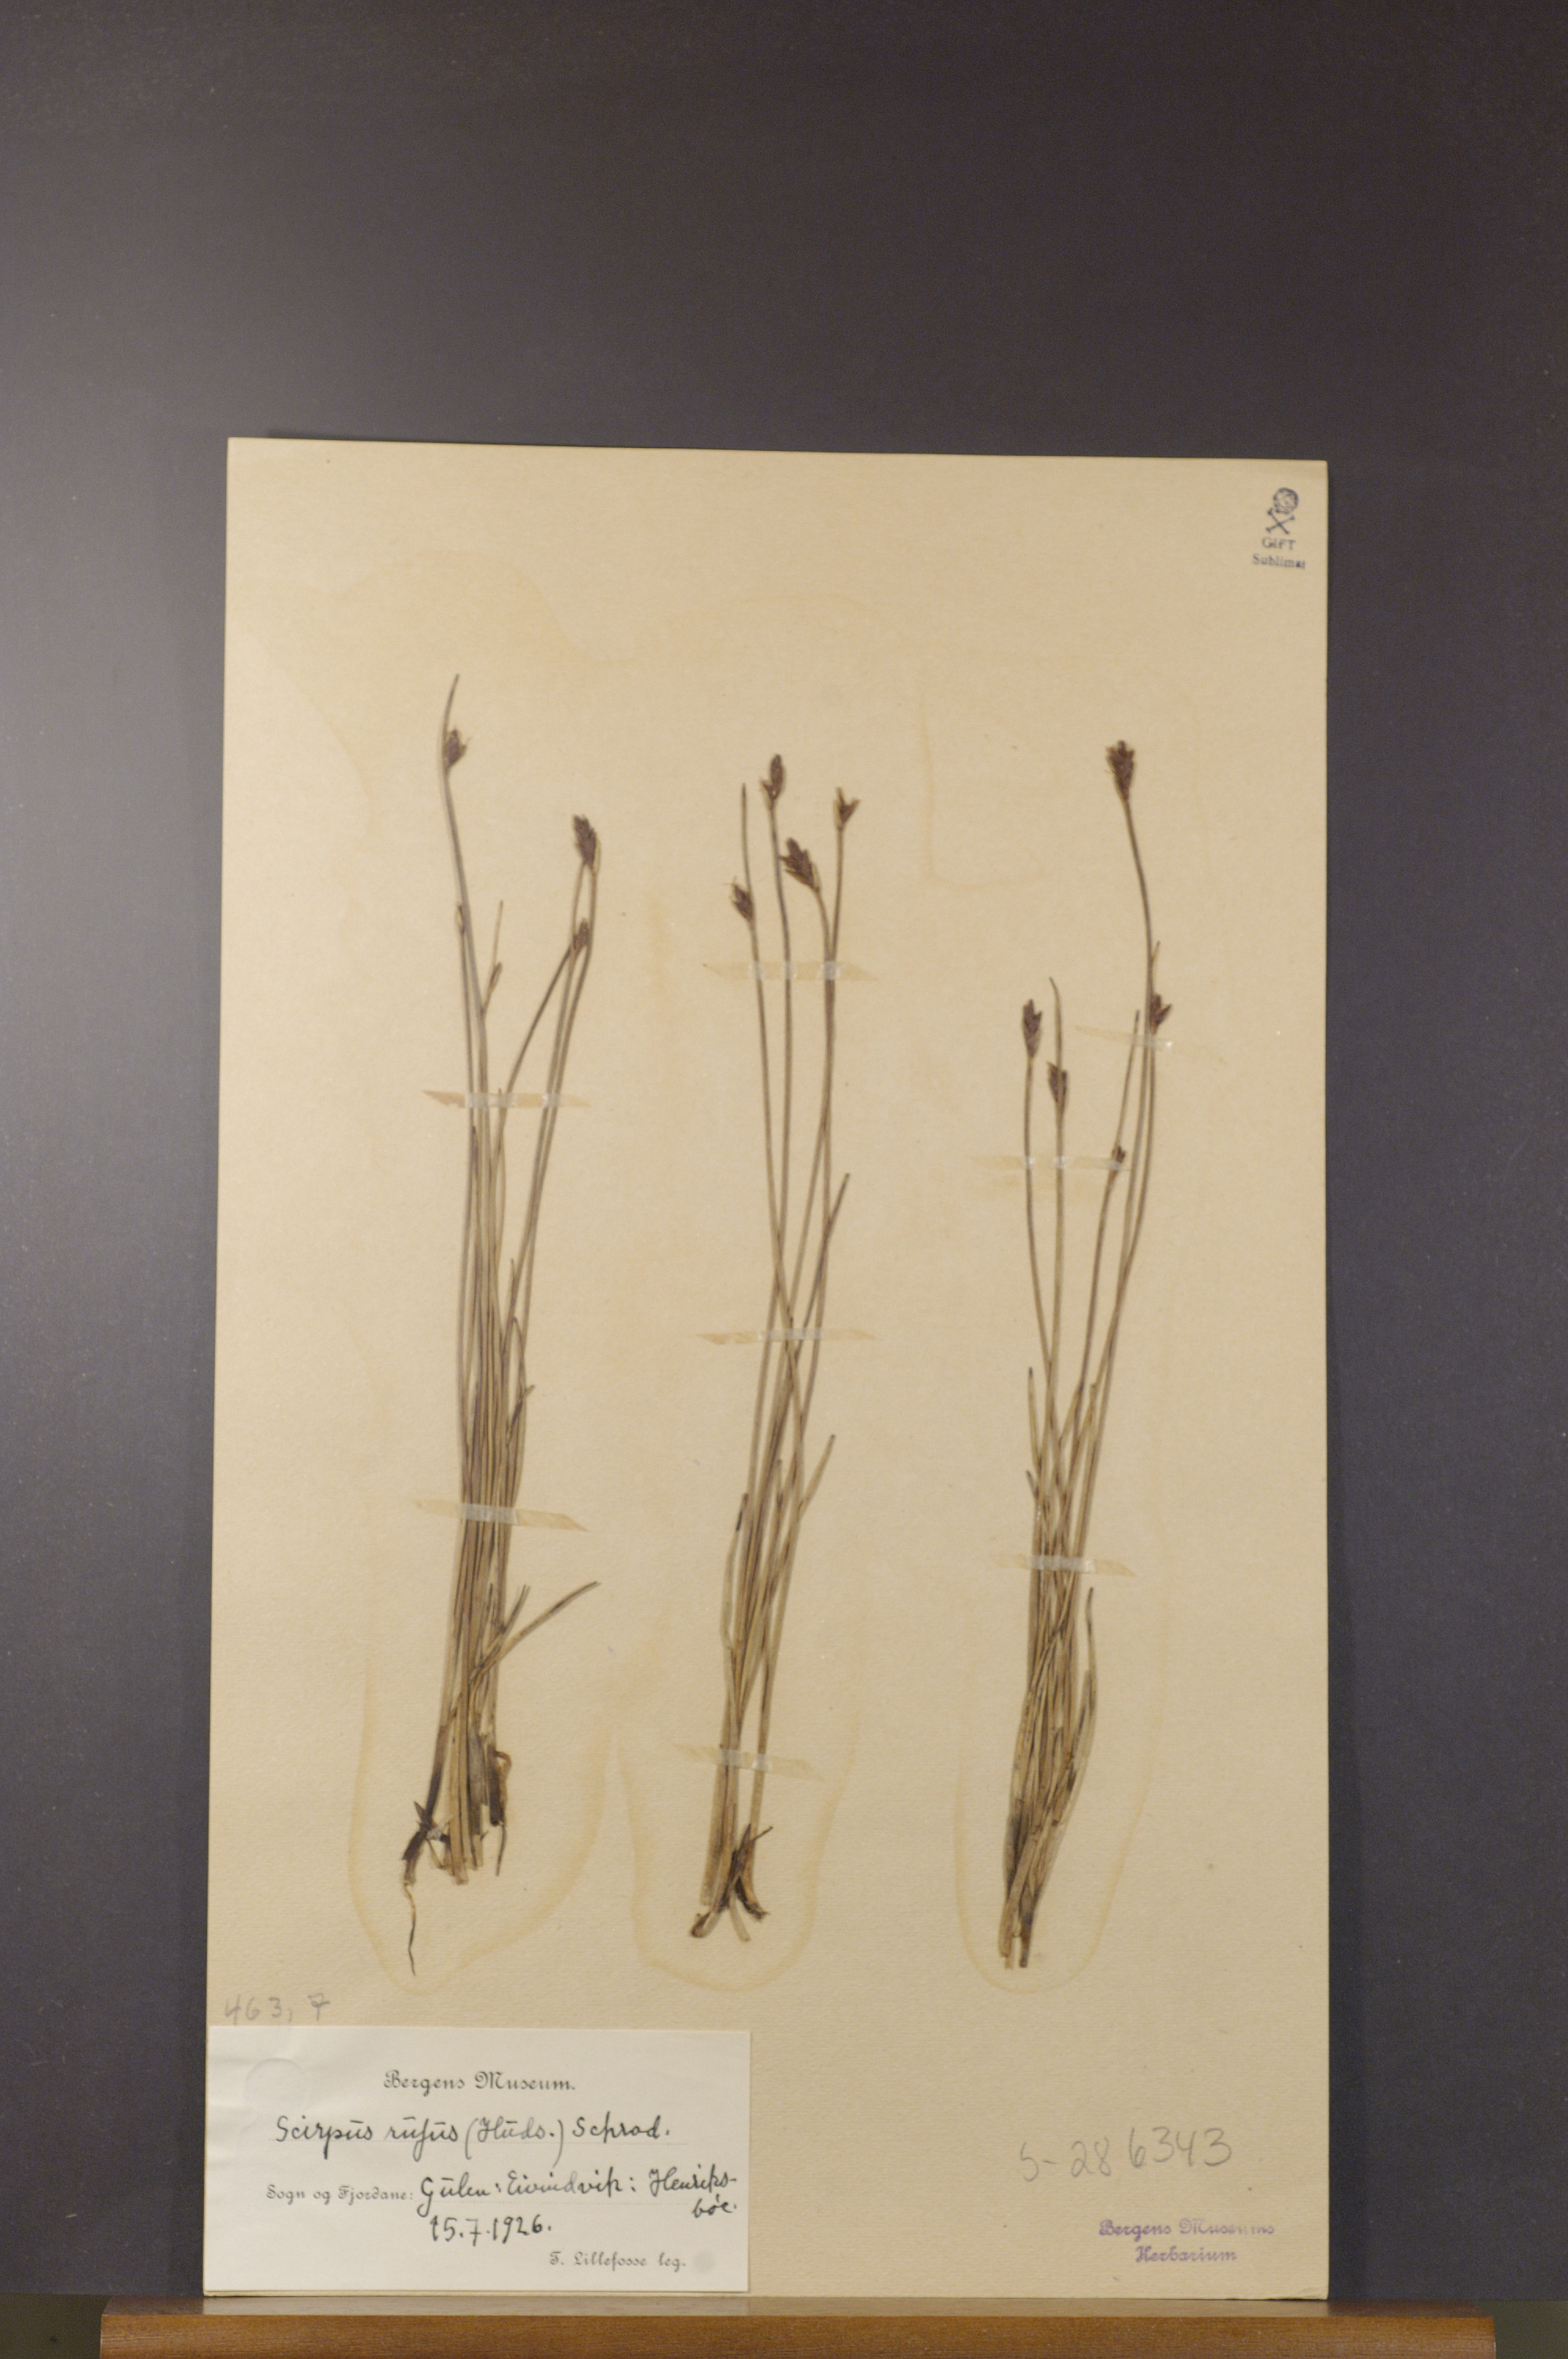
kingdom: Plantae
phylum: Tracheophyta
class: Liliopsida
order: Poales
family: Cyperaceae
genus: Blysmus
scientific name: Blysmus rufus
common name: Saltmarsh flat-sedge
